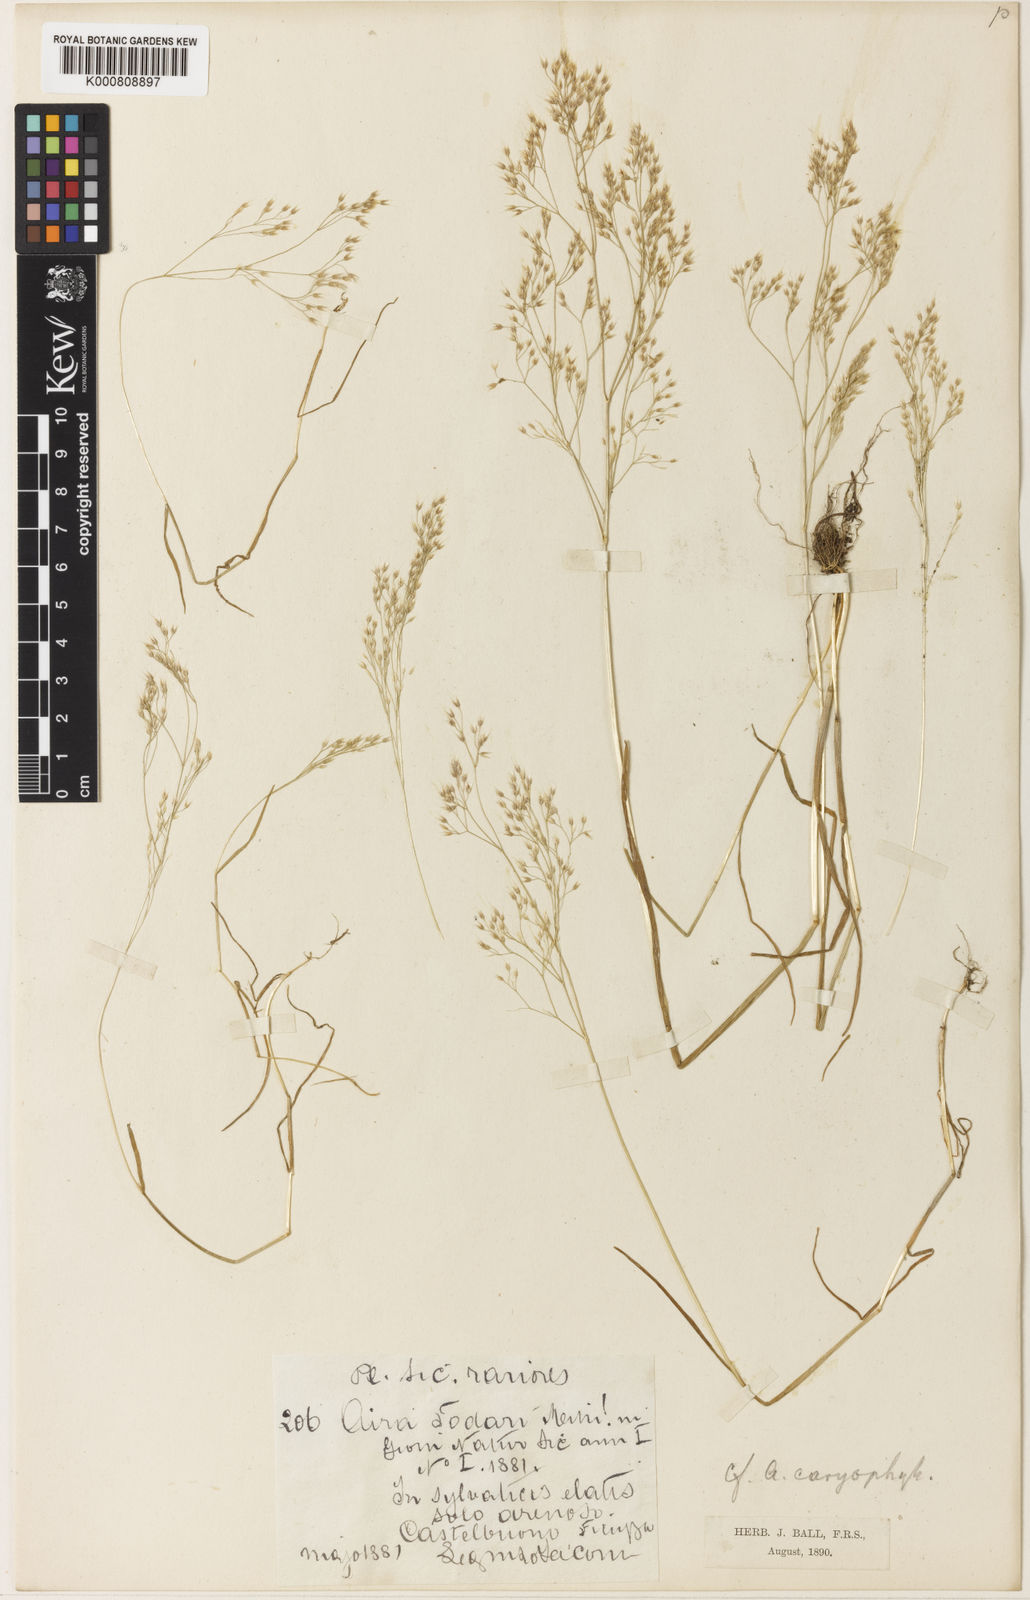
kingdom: Plantae
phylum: Tracheophyta
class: Liliopsida
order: Poales
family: Poaceae
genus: Aira
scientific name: Aira caryophyllea
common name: Silver hairgrass
